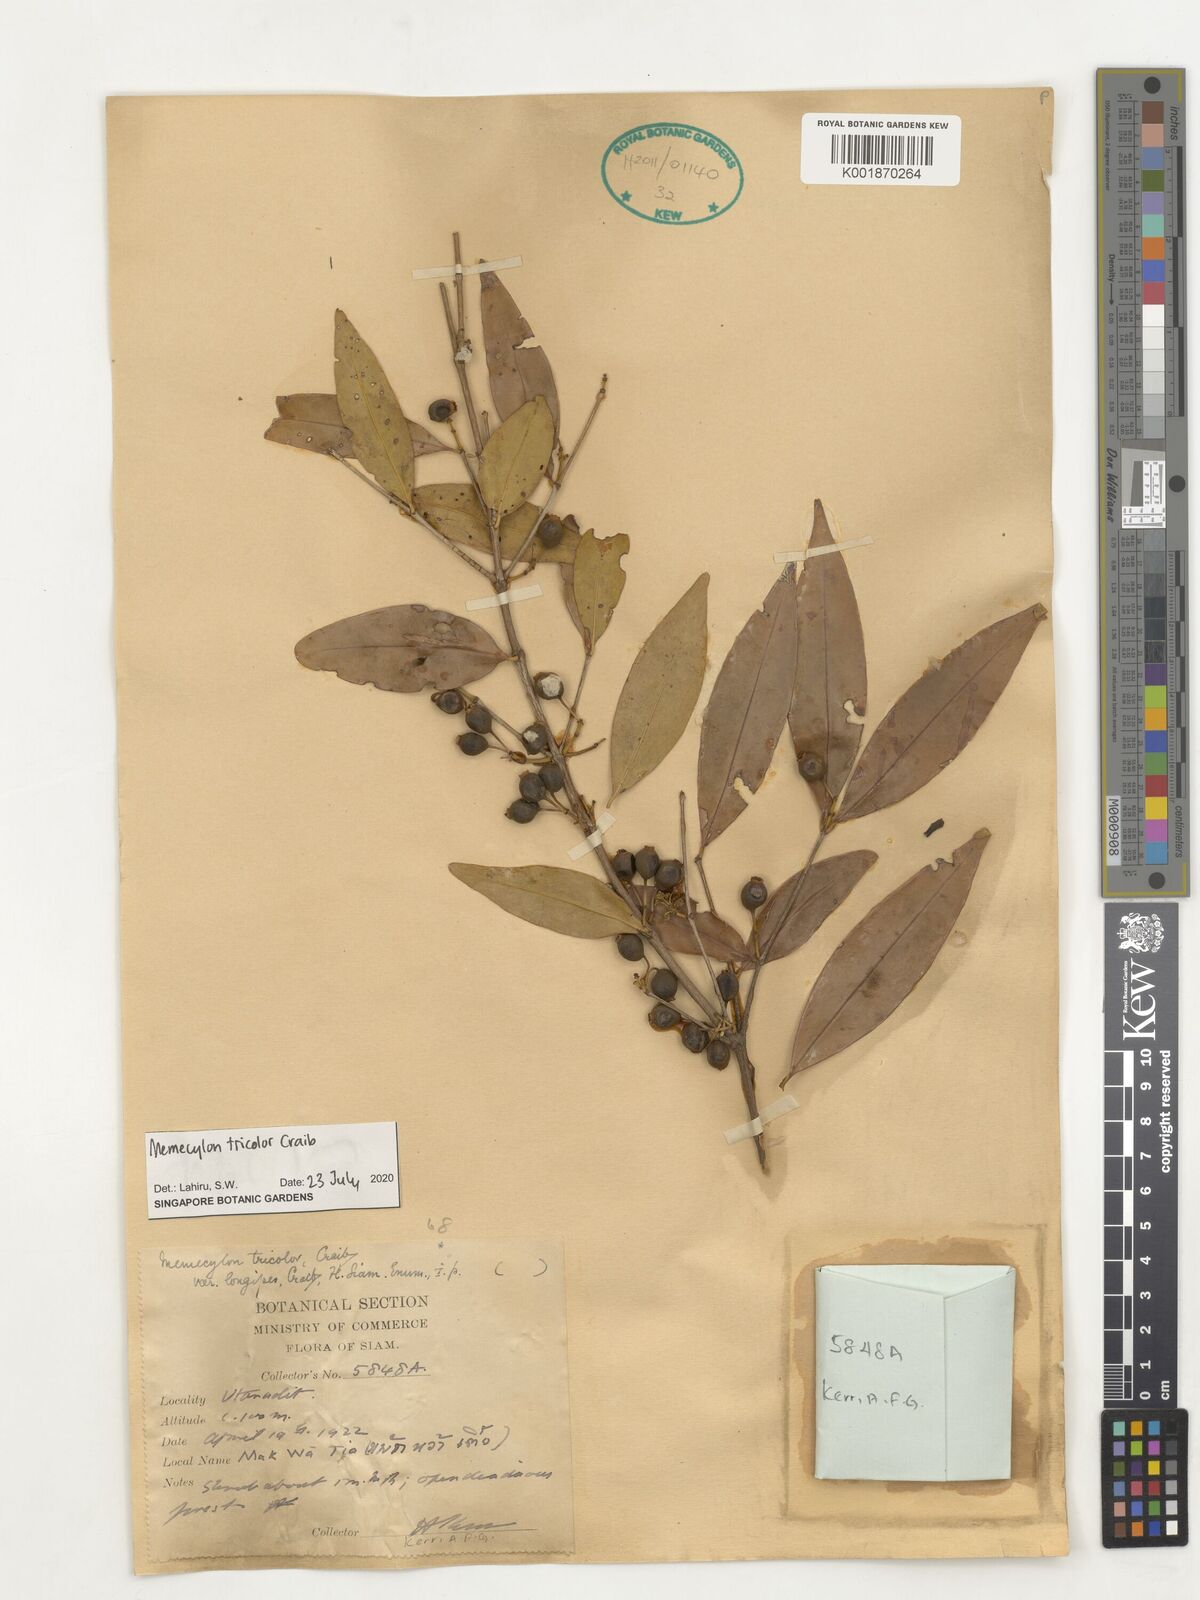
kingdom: Plantae
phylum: Tracheophyta
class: Magnoliopsida
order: Myrtales
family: Melastomataceae
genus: Memecylon
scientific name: Memecylon tricolor
